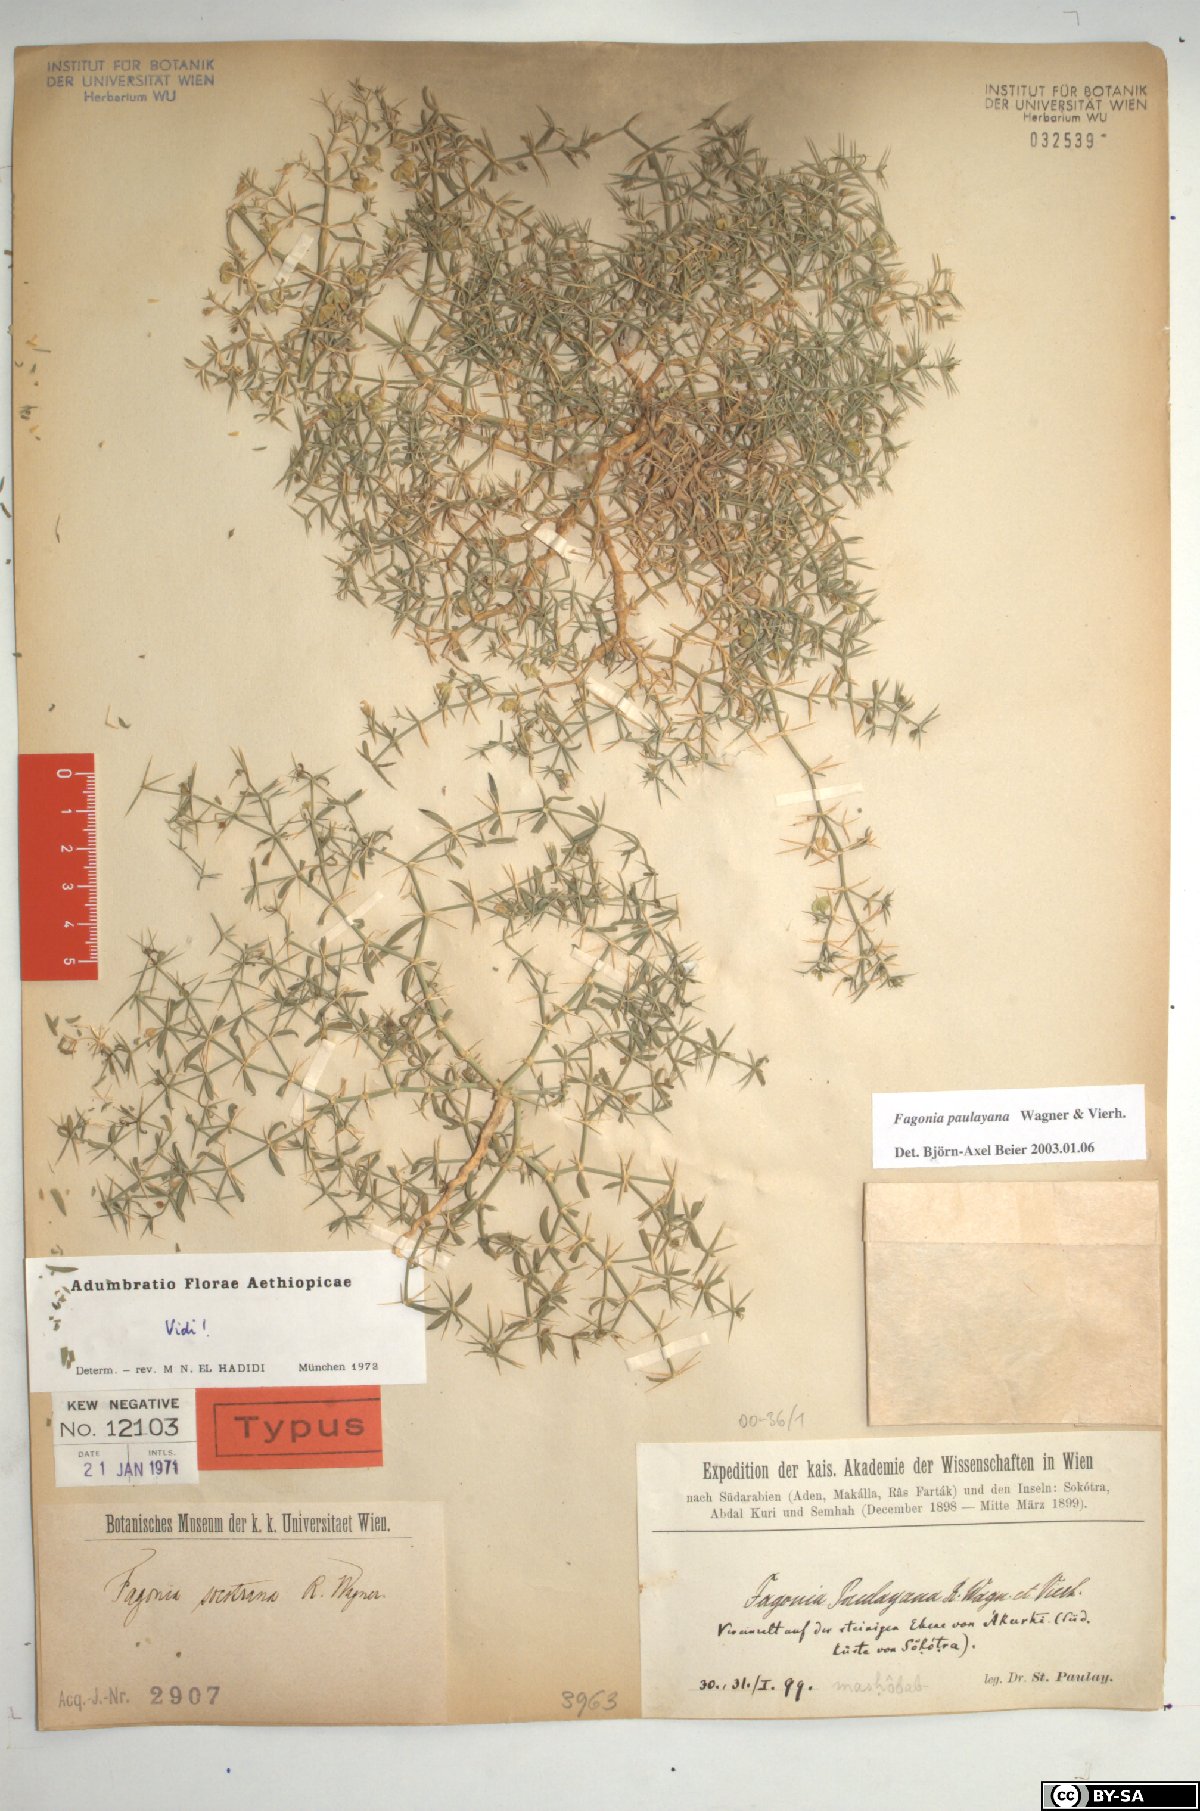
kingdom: Plantae
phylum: Tracheophyta
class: Magnoliopsida
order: Zygophyllales
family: Zygophyllaceae
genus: Fagonia
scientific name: Fagonia paulayana
